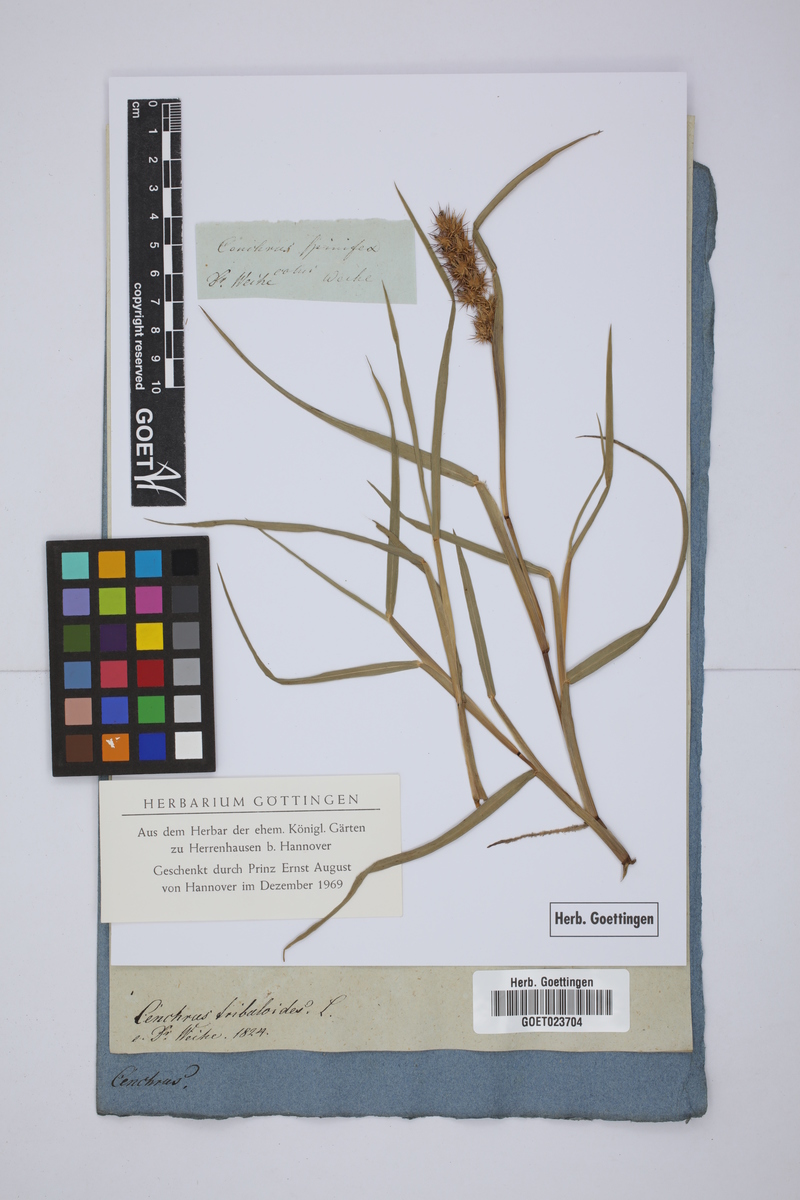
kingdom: Plantae
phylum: Tracheophyta
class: Liliopsida
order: Poales
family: Poaceae
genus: Cenchrus
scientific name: Cenchrus tribuloides
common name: Dune sandbur
